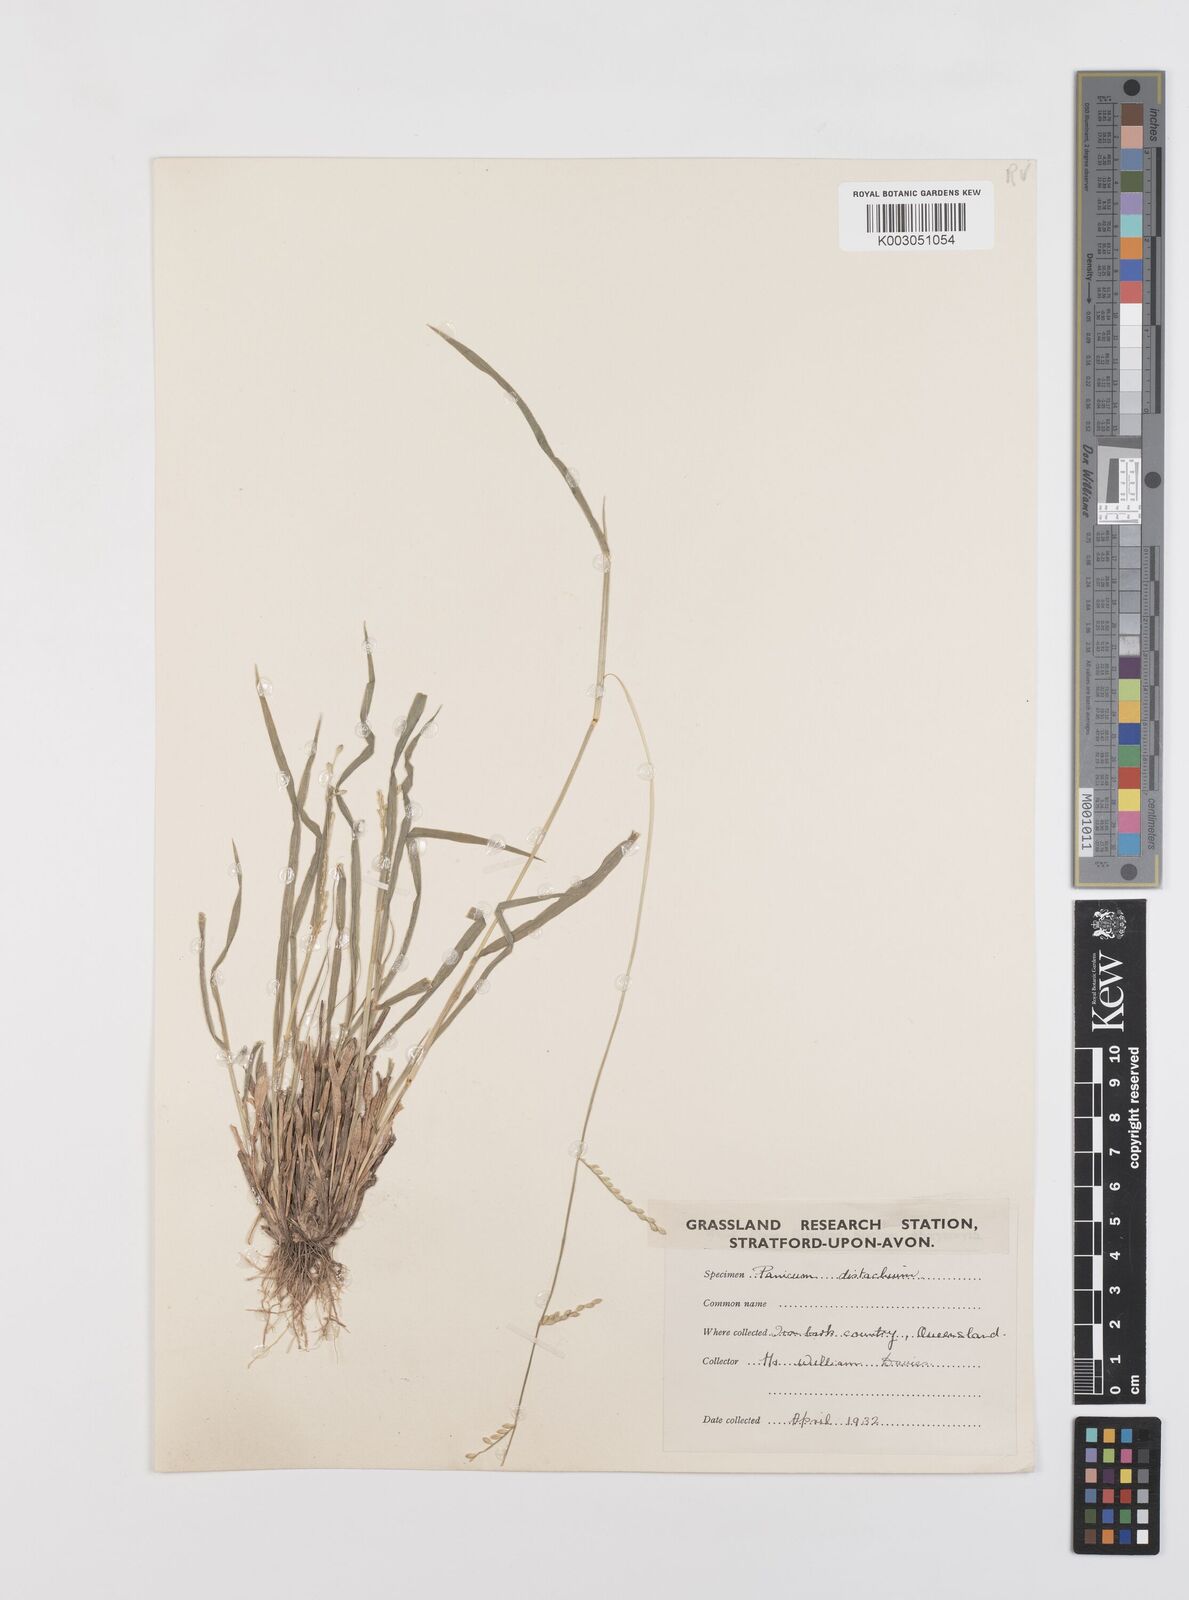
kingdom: Plantae
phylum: Tracheophyta
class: Liliopsida
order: Poales
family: Poaceae
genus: Urochloa
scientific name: Urochloa piligera
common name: Wattle signalgrass
